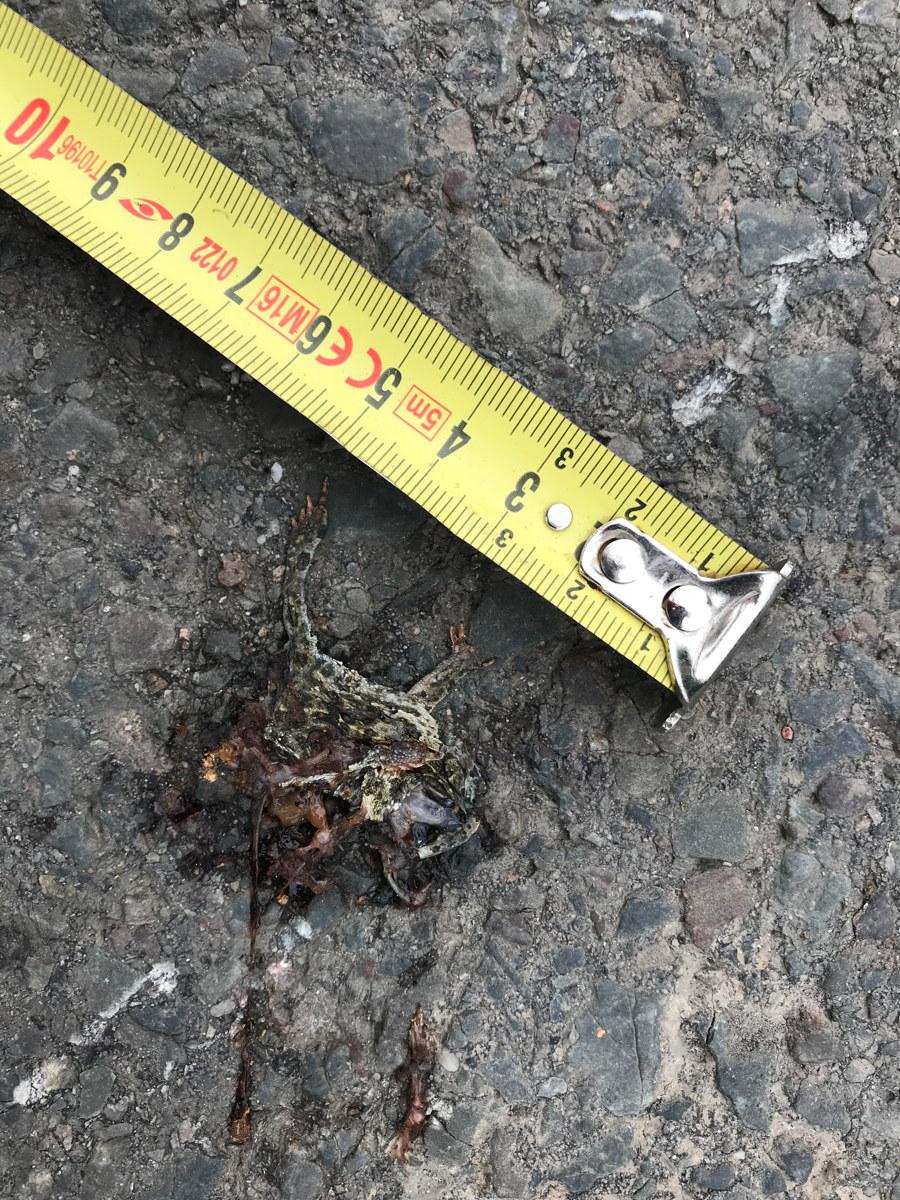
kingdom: Animalia
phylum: Chordata
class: Amphibia
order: Anura
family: Bufonidae
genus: Epidalea
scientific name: Epidalea calamita
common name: Natterjack toad
